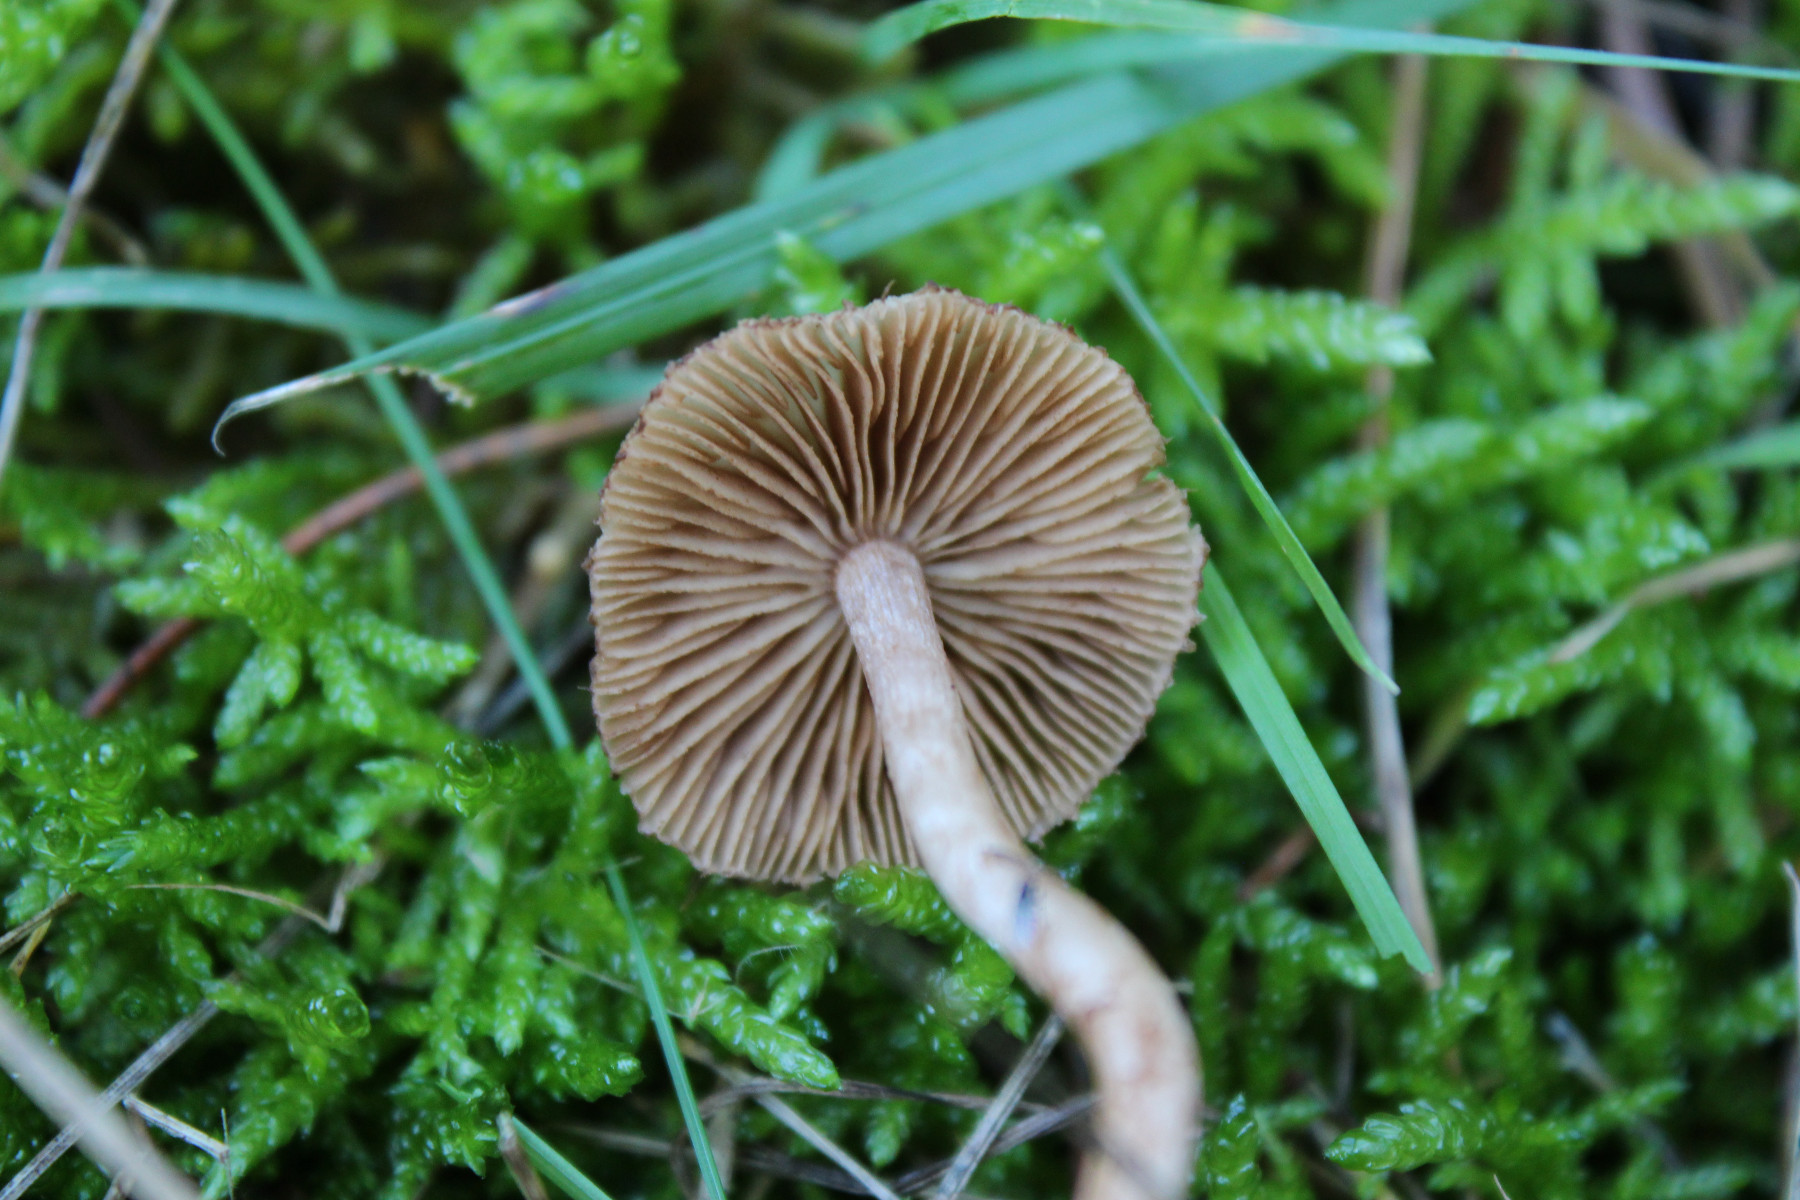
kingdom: Fungi
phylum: Basidiomycota
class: Agaricomycetes
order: Agaricales
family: Inocybaceae
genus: Inocybe
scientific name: Inocybe
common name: trævlhat
